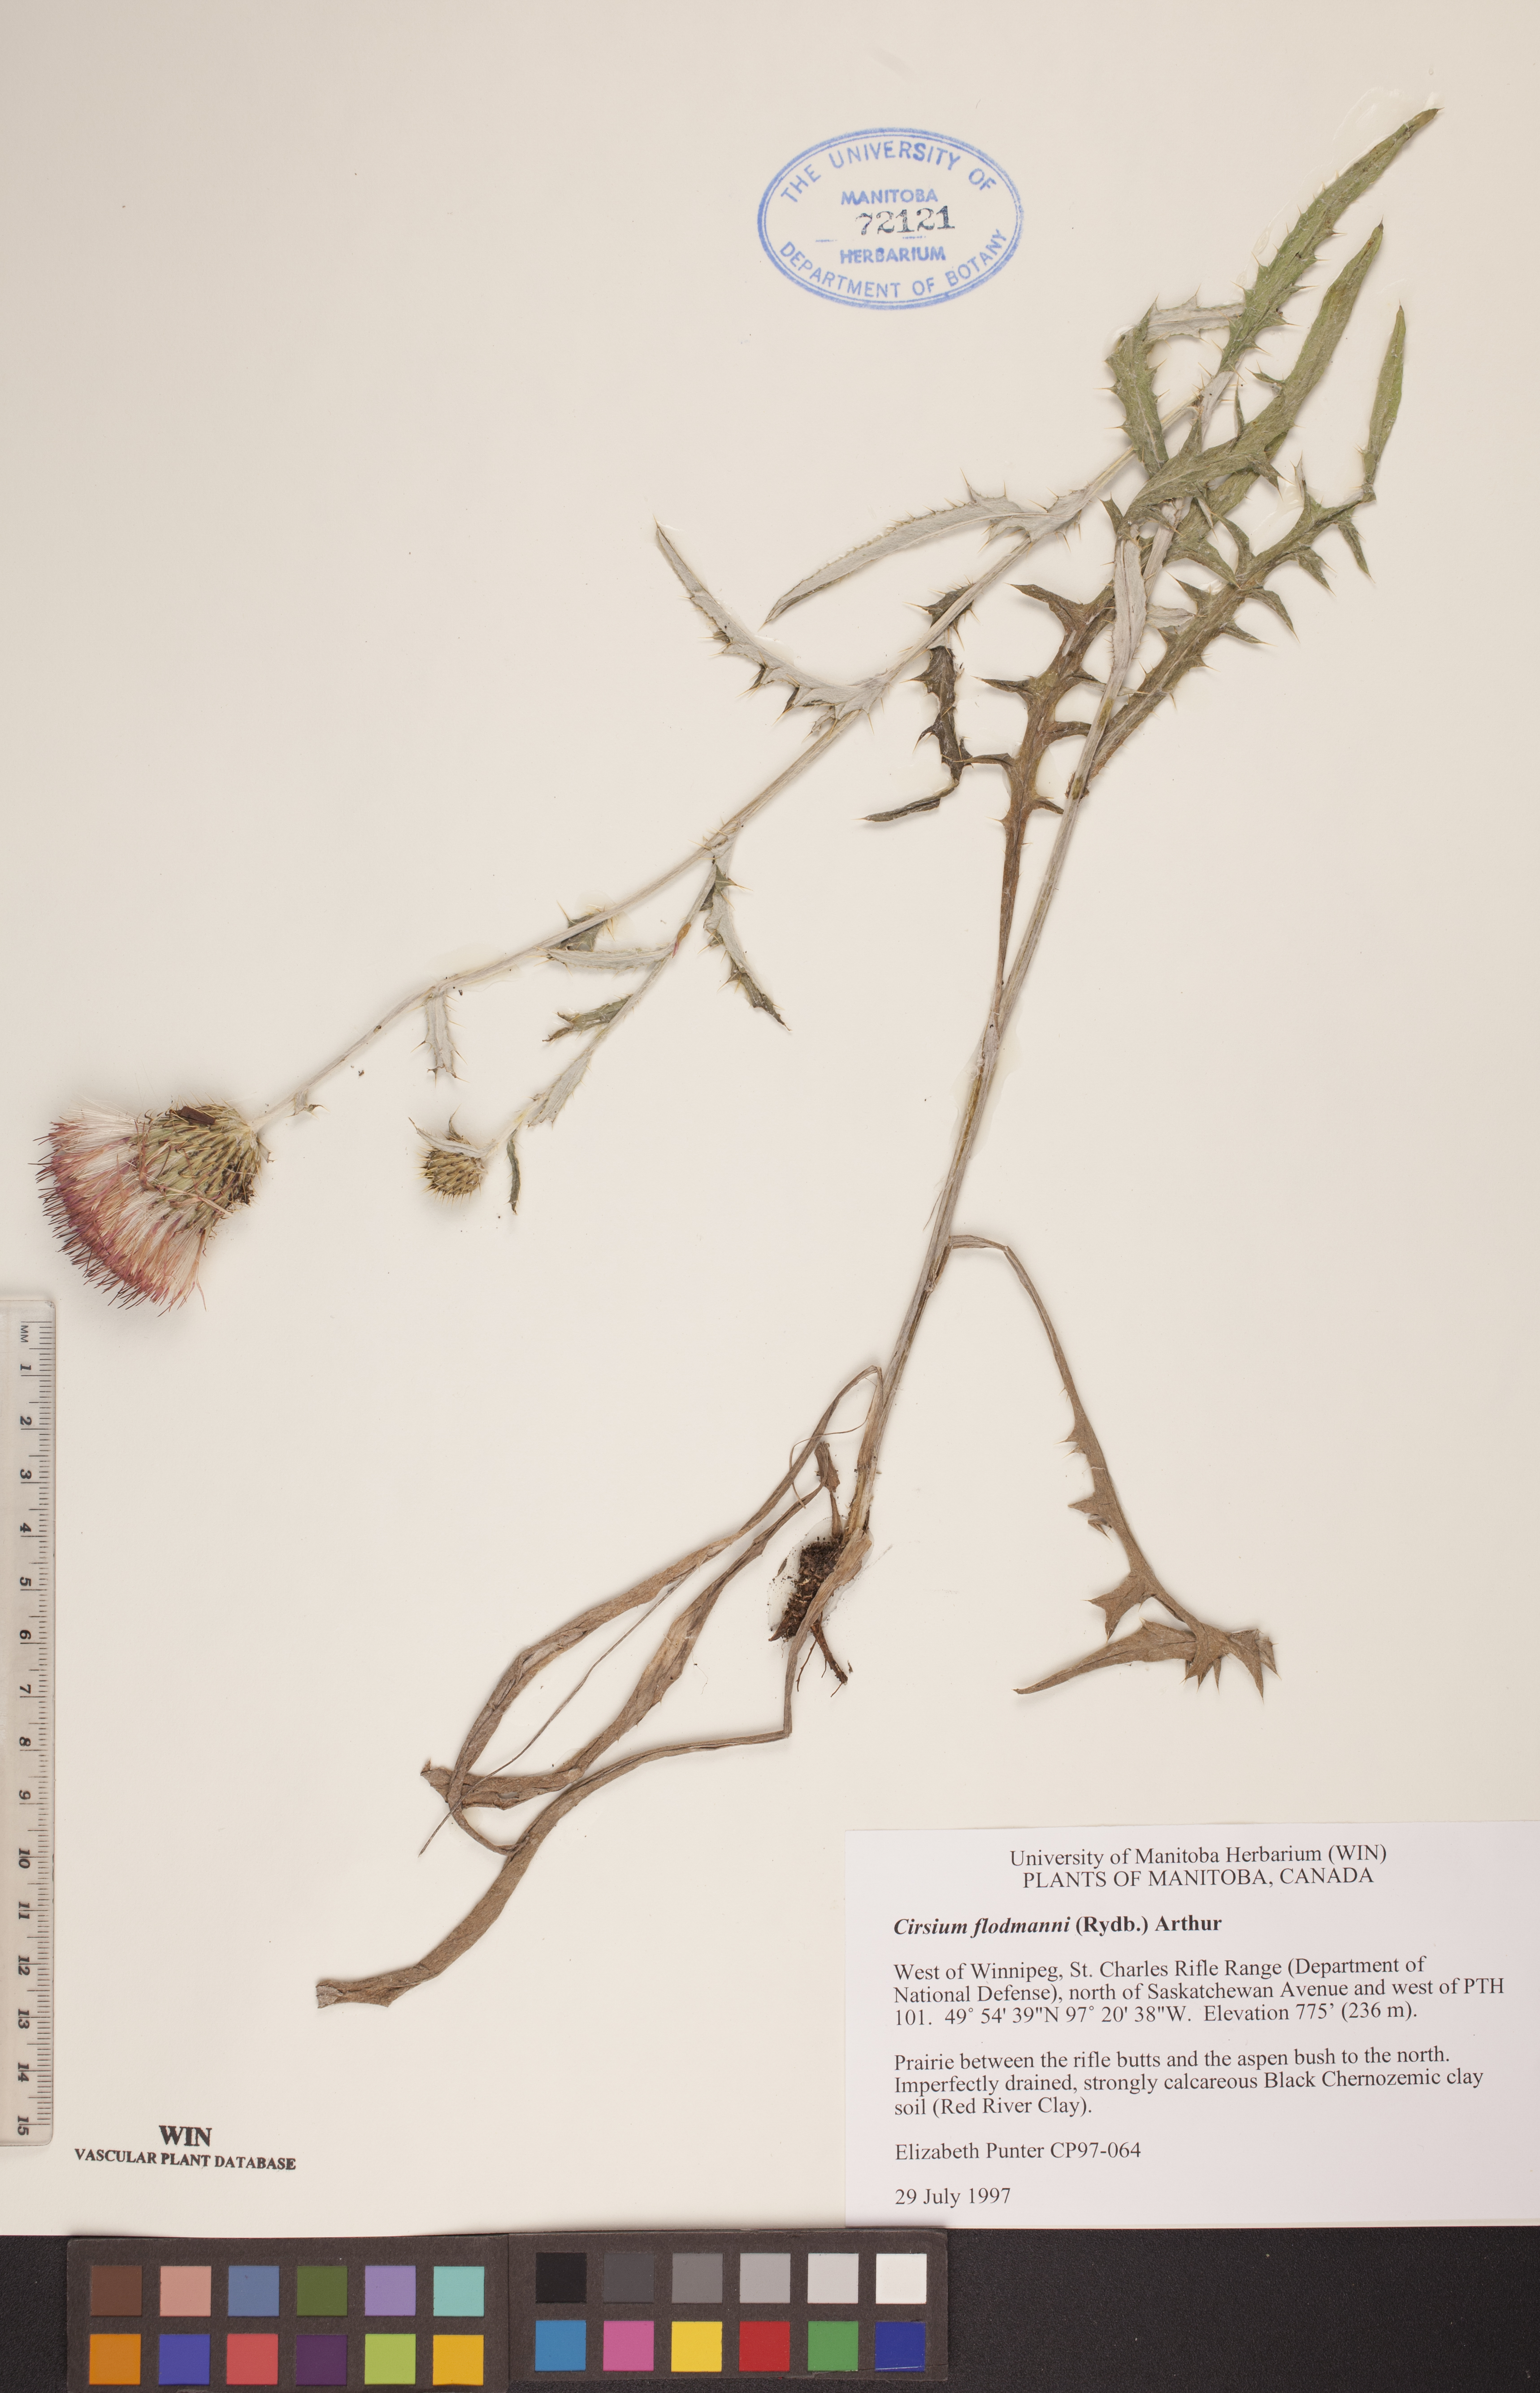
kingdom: Plantae
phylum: Tracheophyta
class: Magnoliopsida
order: Asterales
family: Asteraceae
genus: Cirsium
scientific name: Cirsium flodmanii
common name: Flodman's thistle
